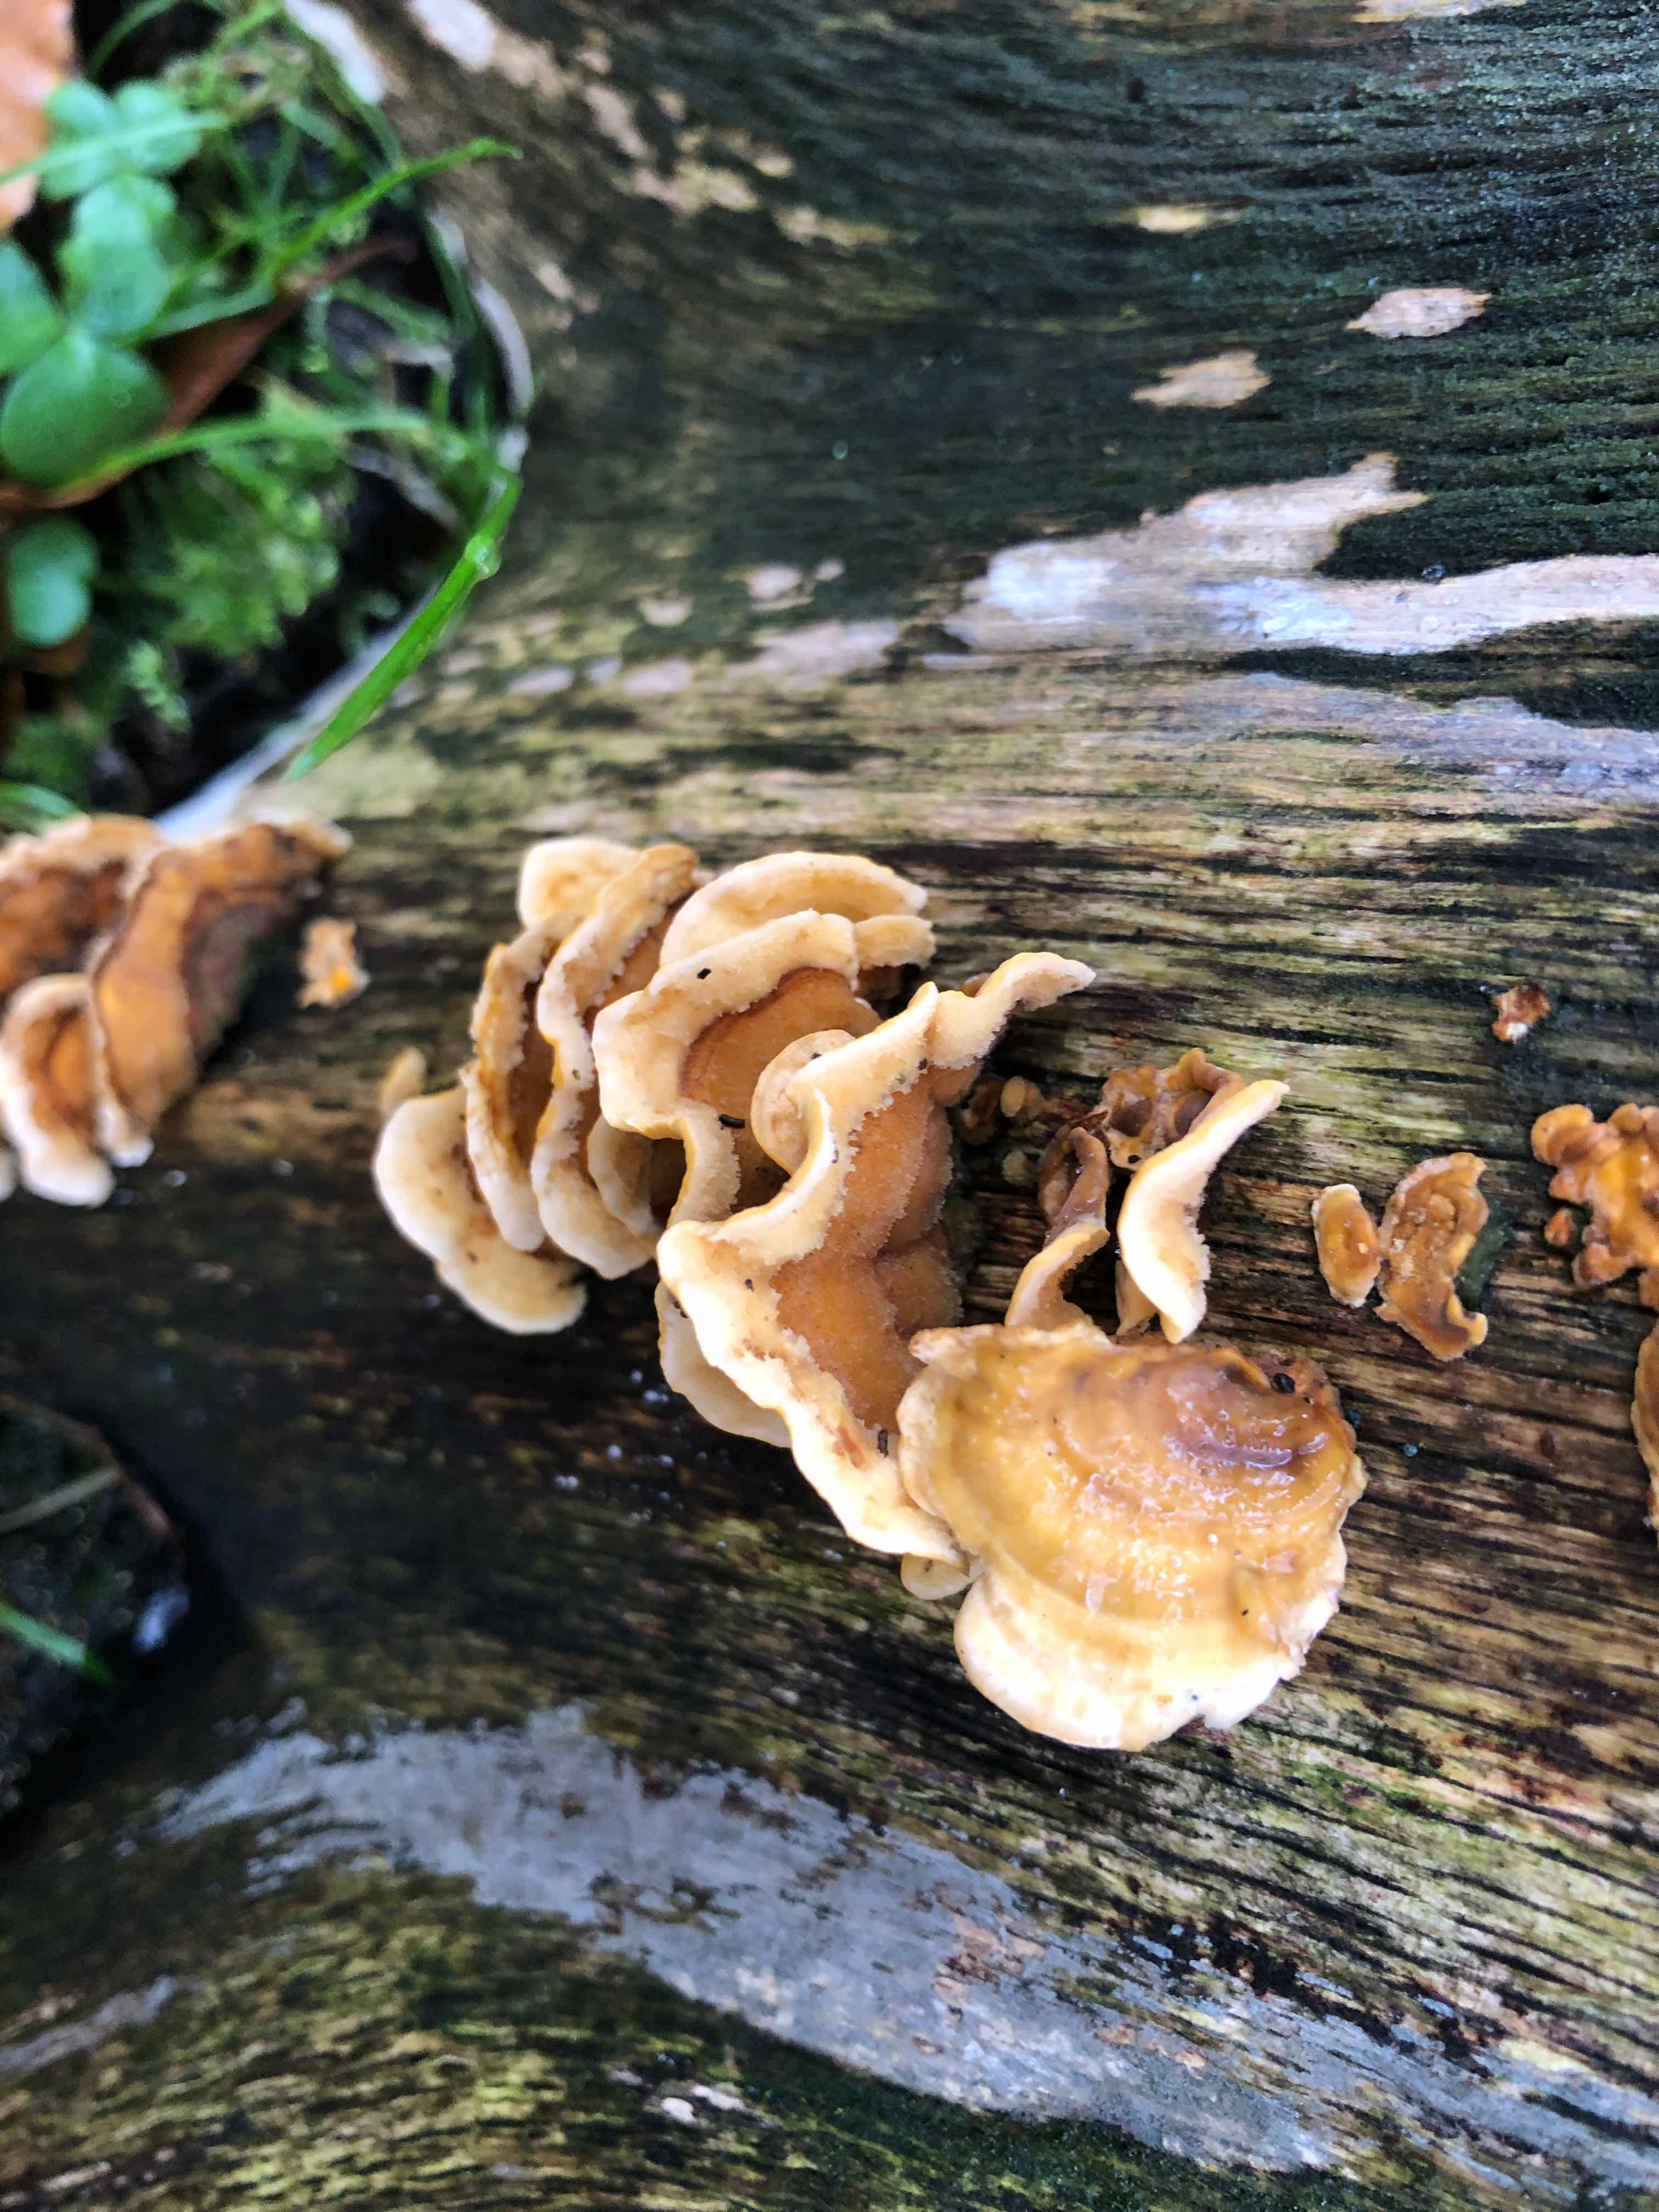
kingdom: Fungi
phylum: Basidiomycota
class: Agaricomycetes
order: Russulales
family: Stereaceae
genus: Stereum
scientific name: Stereum hirsutum
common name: håret lædersvamp
